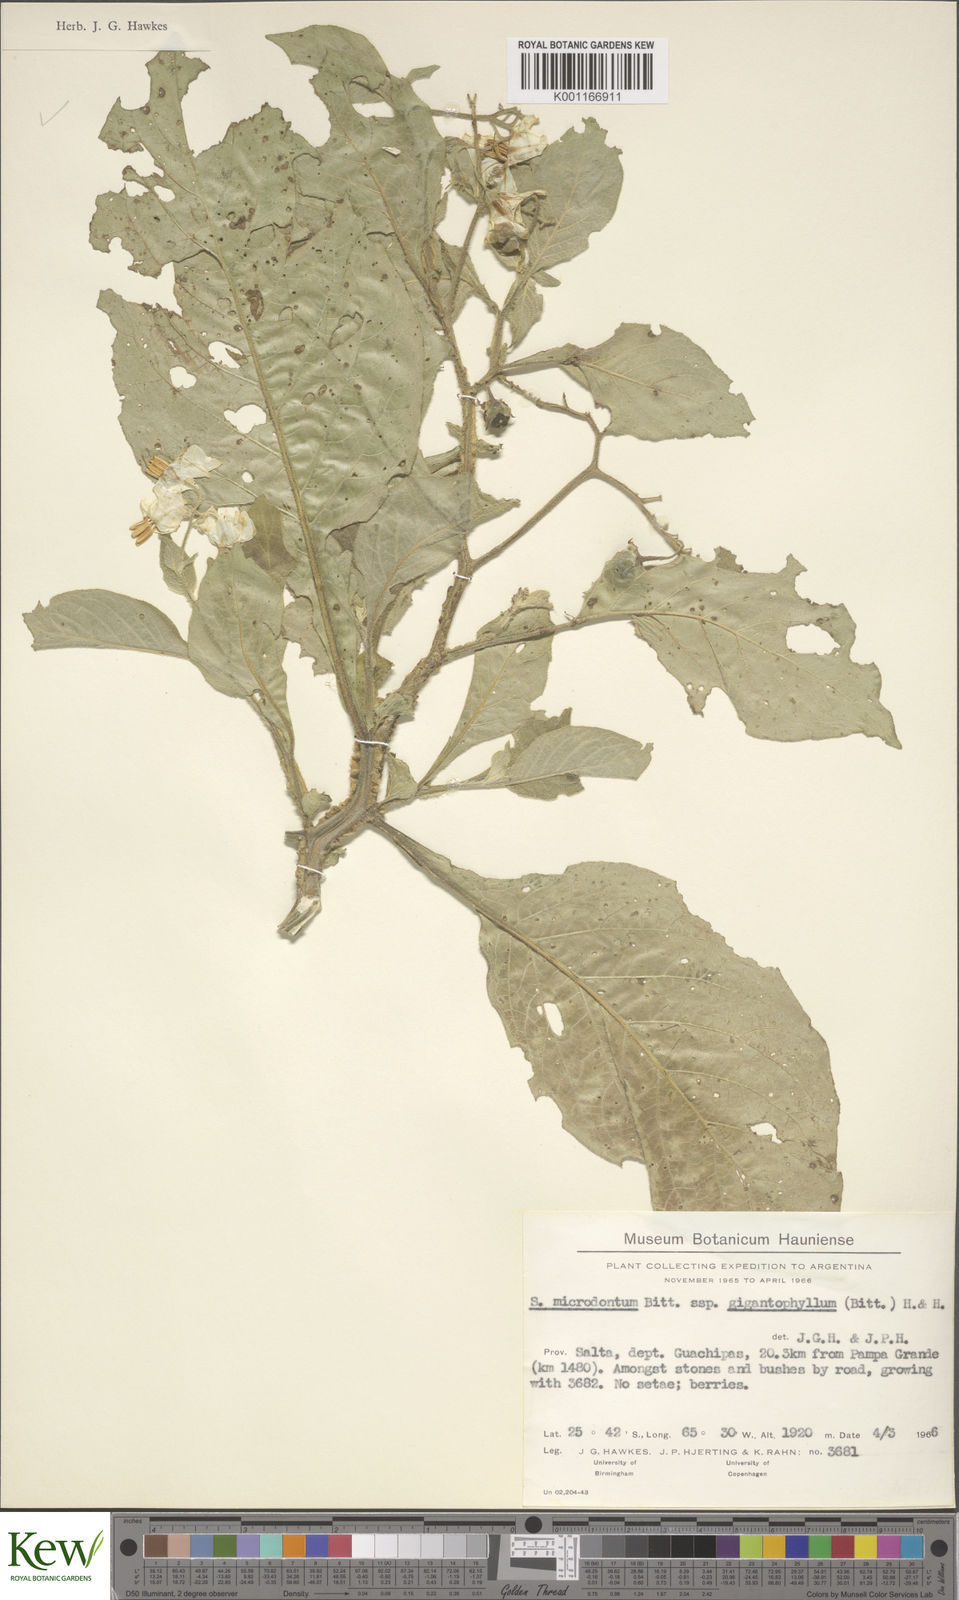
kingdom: Plantae
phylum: Tracheophyta
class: Magnoliopsida
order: Solanales
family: Solanaceae
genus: Solanum
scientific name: Solanum microdontum
